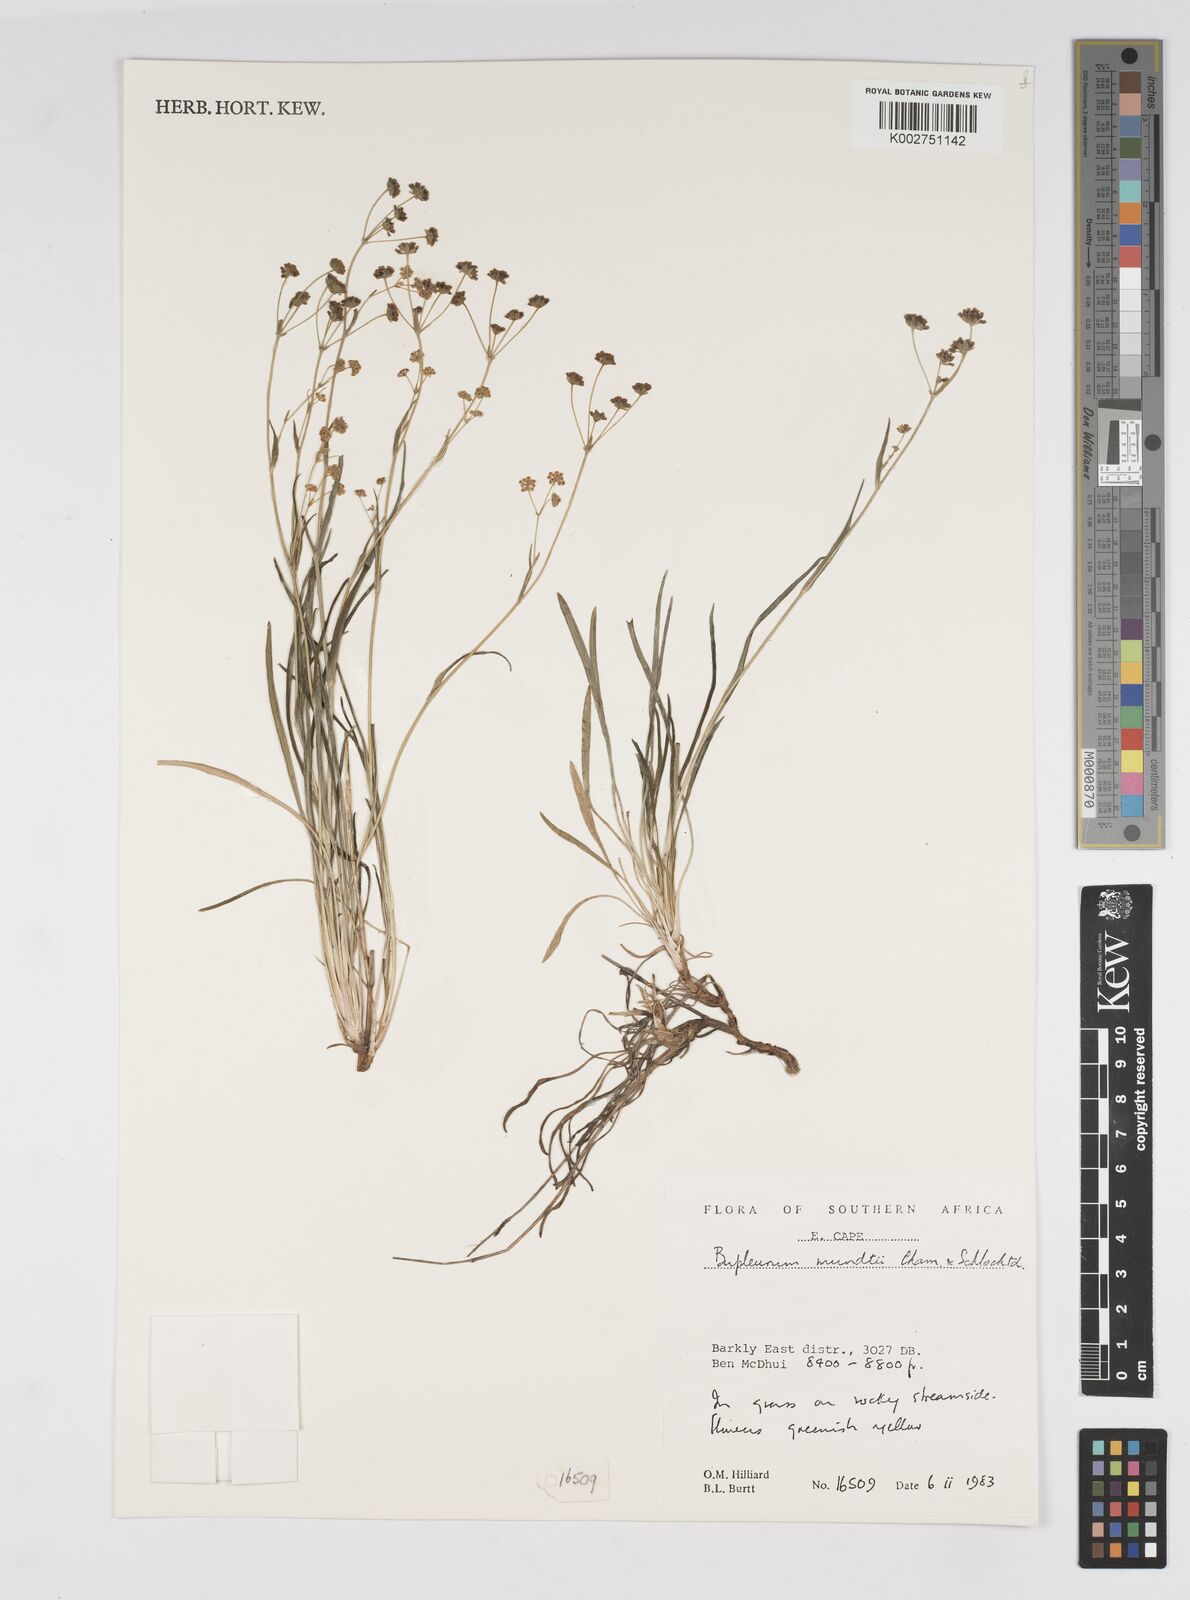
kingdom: Plantae
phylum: Tracheophyta
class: Magnoliopsida
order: Apiales
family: Apiaceae
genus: Bupleurum
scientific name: Bupleurum mundii
